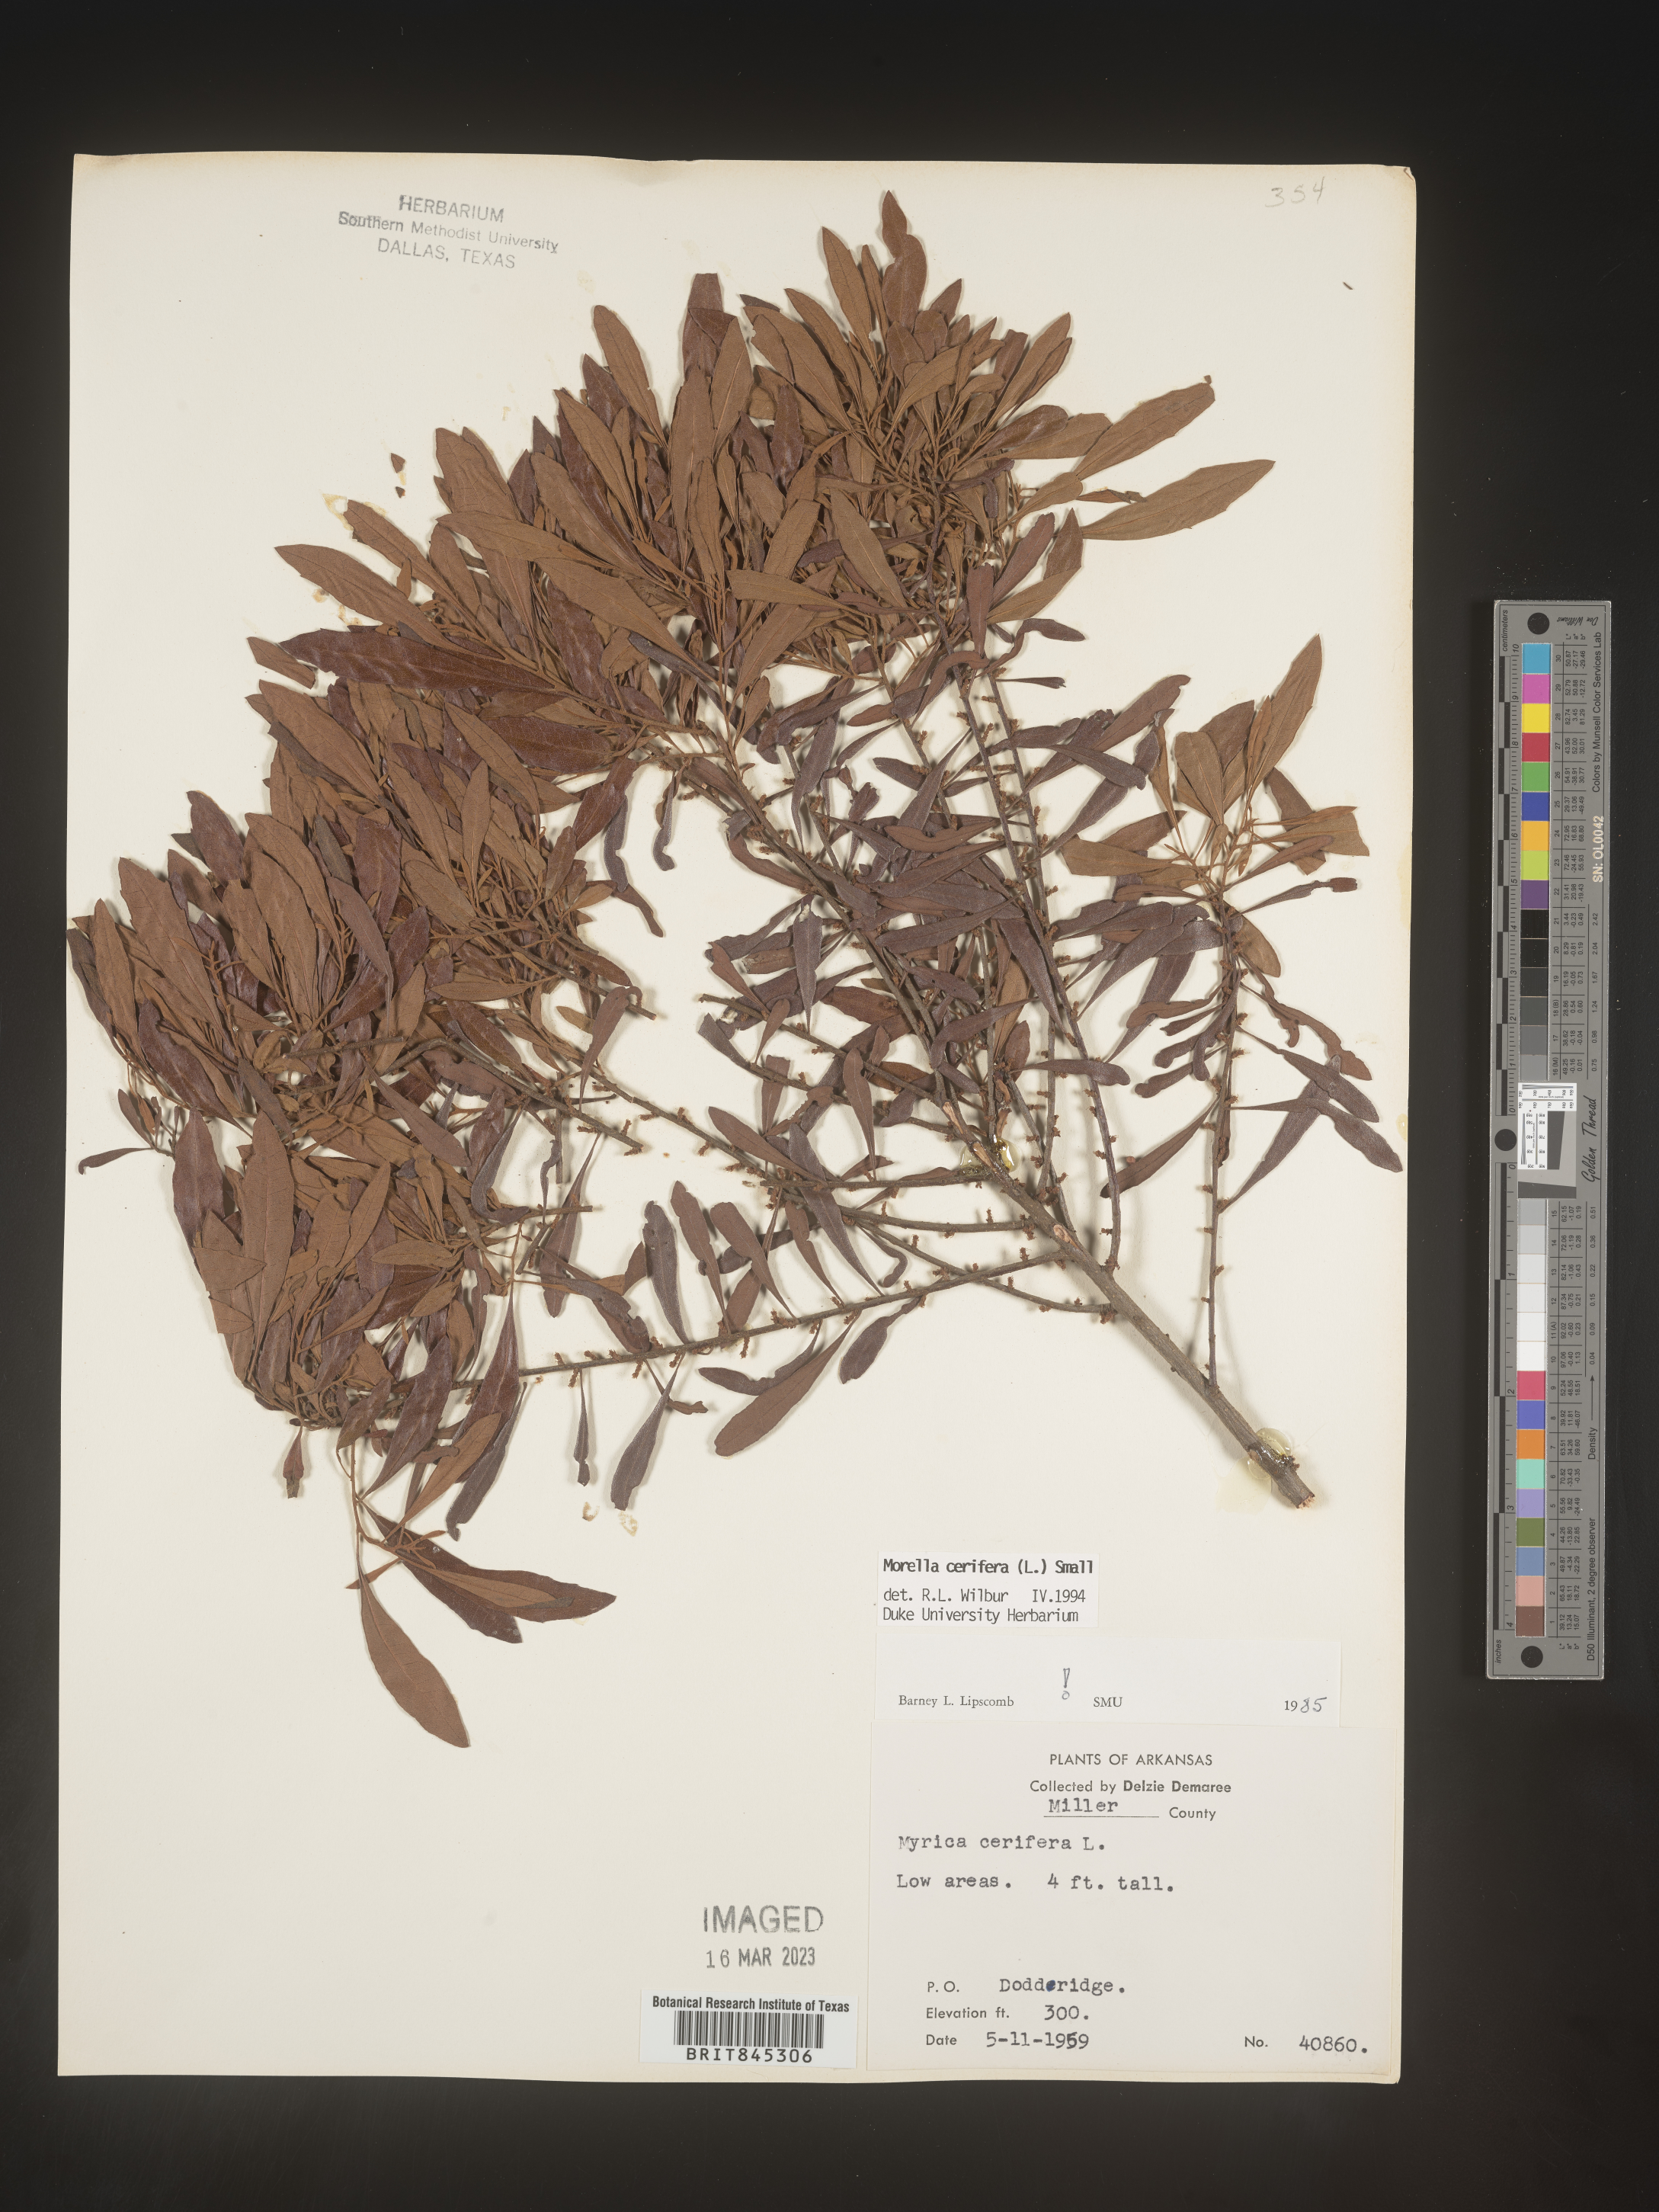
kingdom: Plantae
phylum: Tracheophyta
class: Magnoliopsida
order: Fagales
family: Myricaceae
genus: Morella
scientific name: Morella cerifera
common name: Wax myrtle
